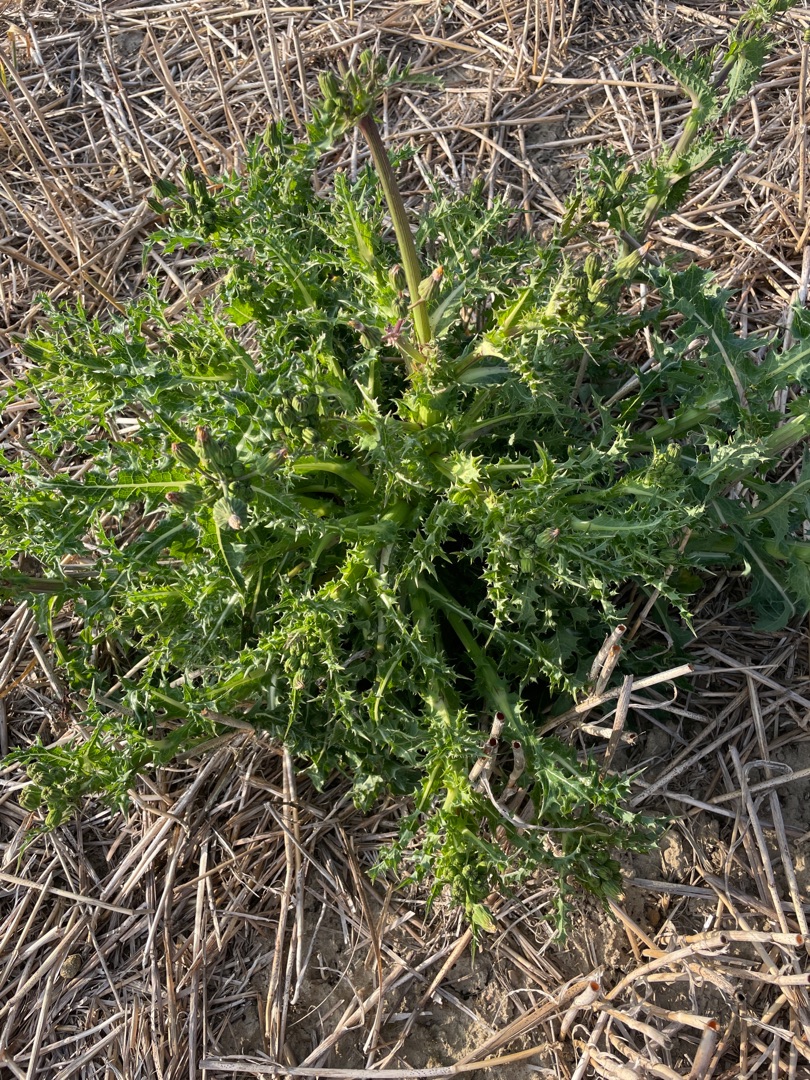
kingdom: Plantae
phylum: Tracheophyta
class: Magnoliopsida
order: Asterales
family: Asteraceae
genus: Sonchus
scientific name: Sonchus asper
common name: Ru svinemælk
